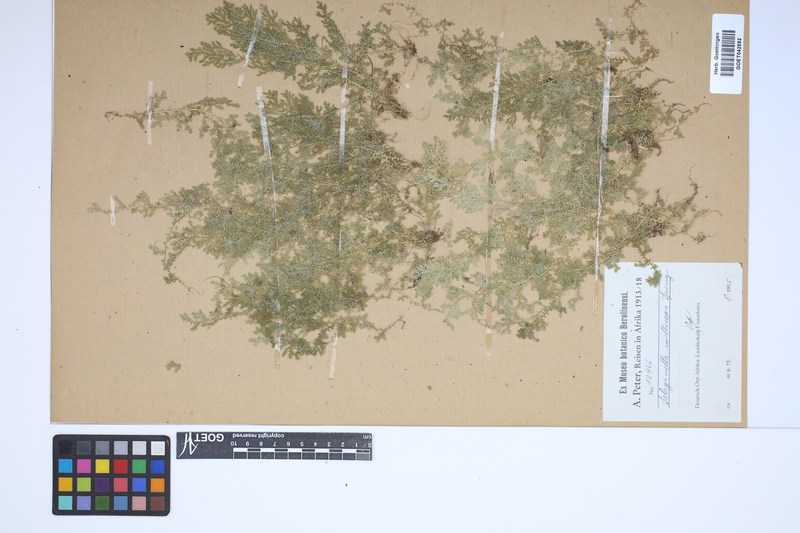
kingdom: Plantae
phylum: Tracheophyta
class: Lycopodiopsida
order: Selaginellales
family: Selaginellaceae
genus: Selaginella
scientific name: Selaginella molliceps
